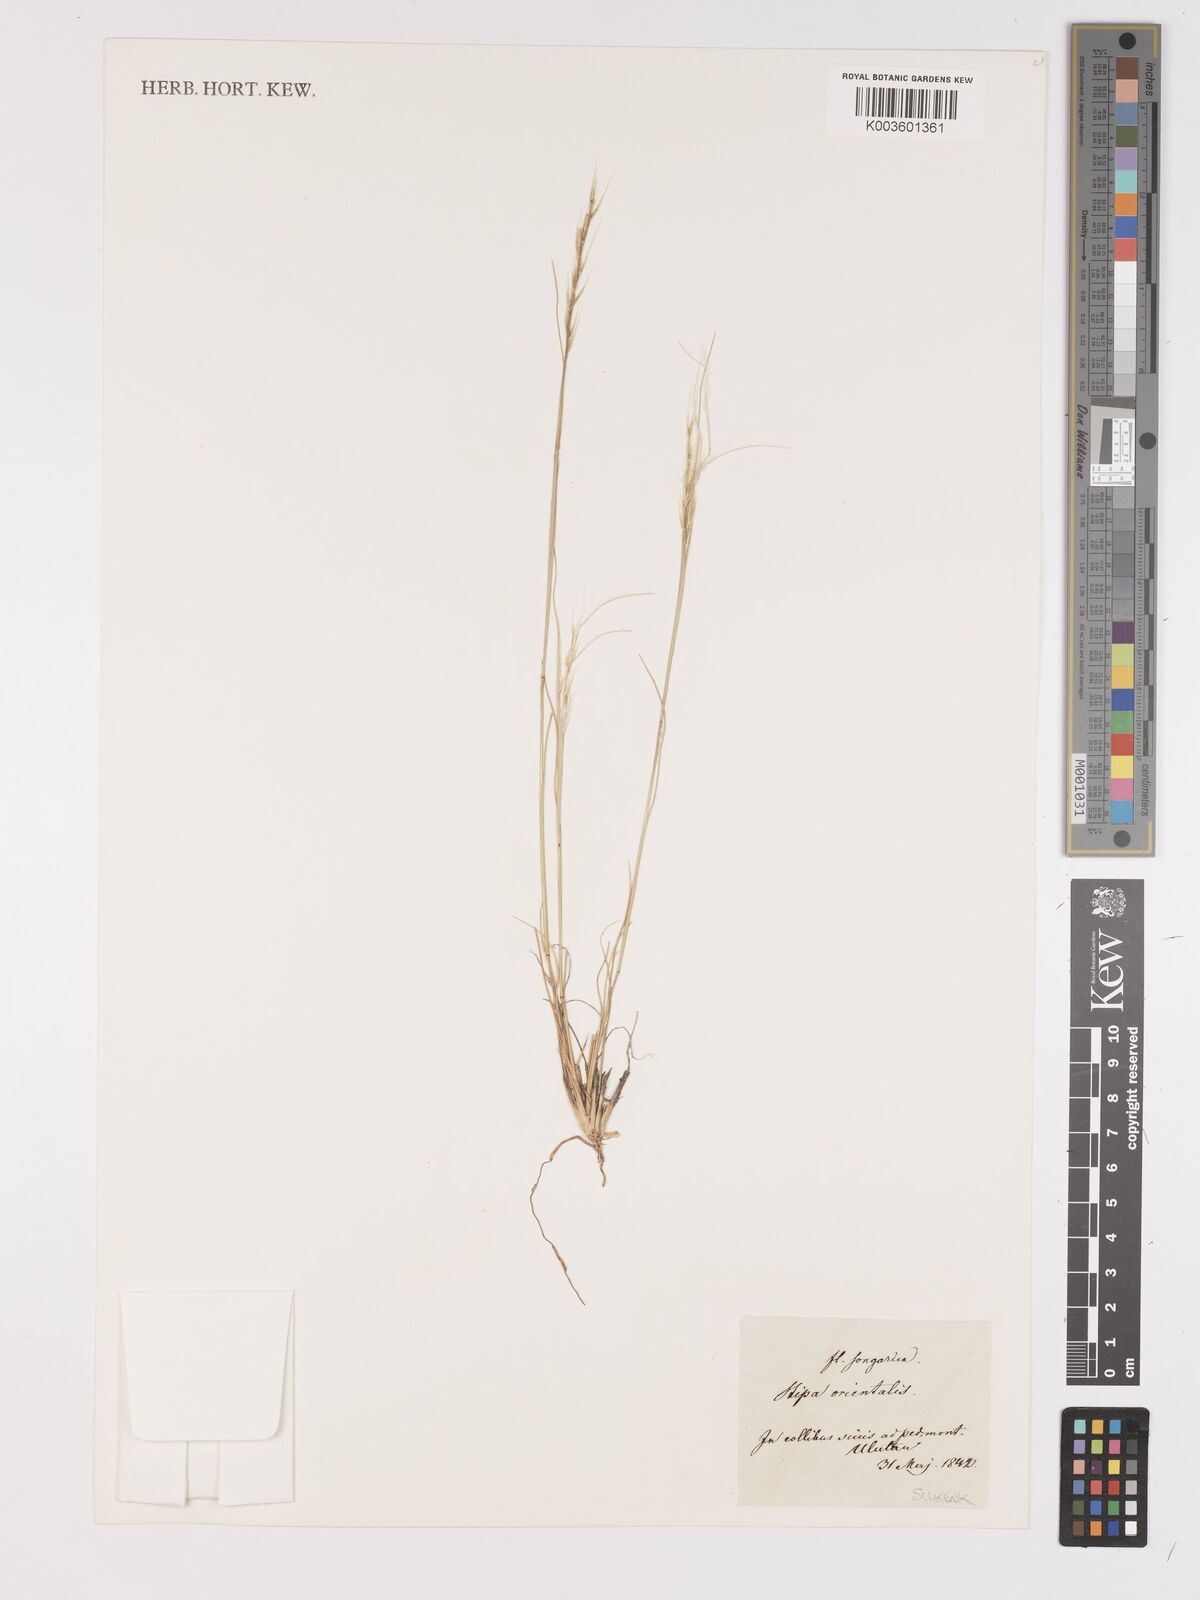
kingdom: Plantae
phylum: Tracheophyta
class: Liliopsida
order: Poales
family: Poaceae
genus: Stipa
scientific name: Stipa orientalis
